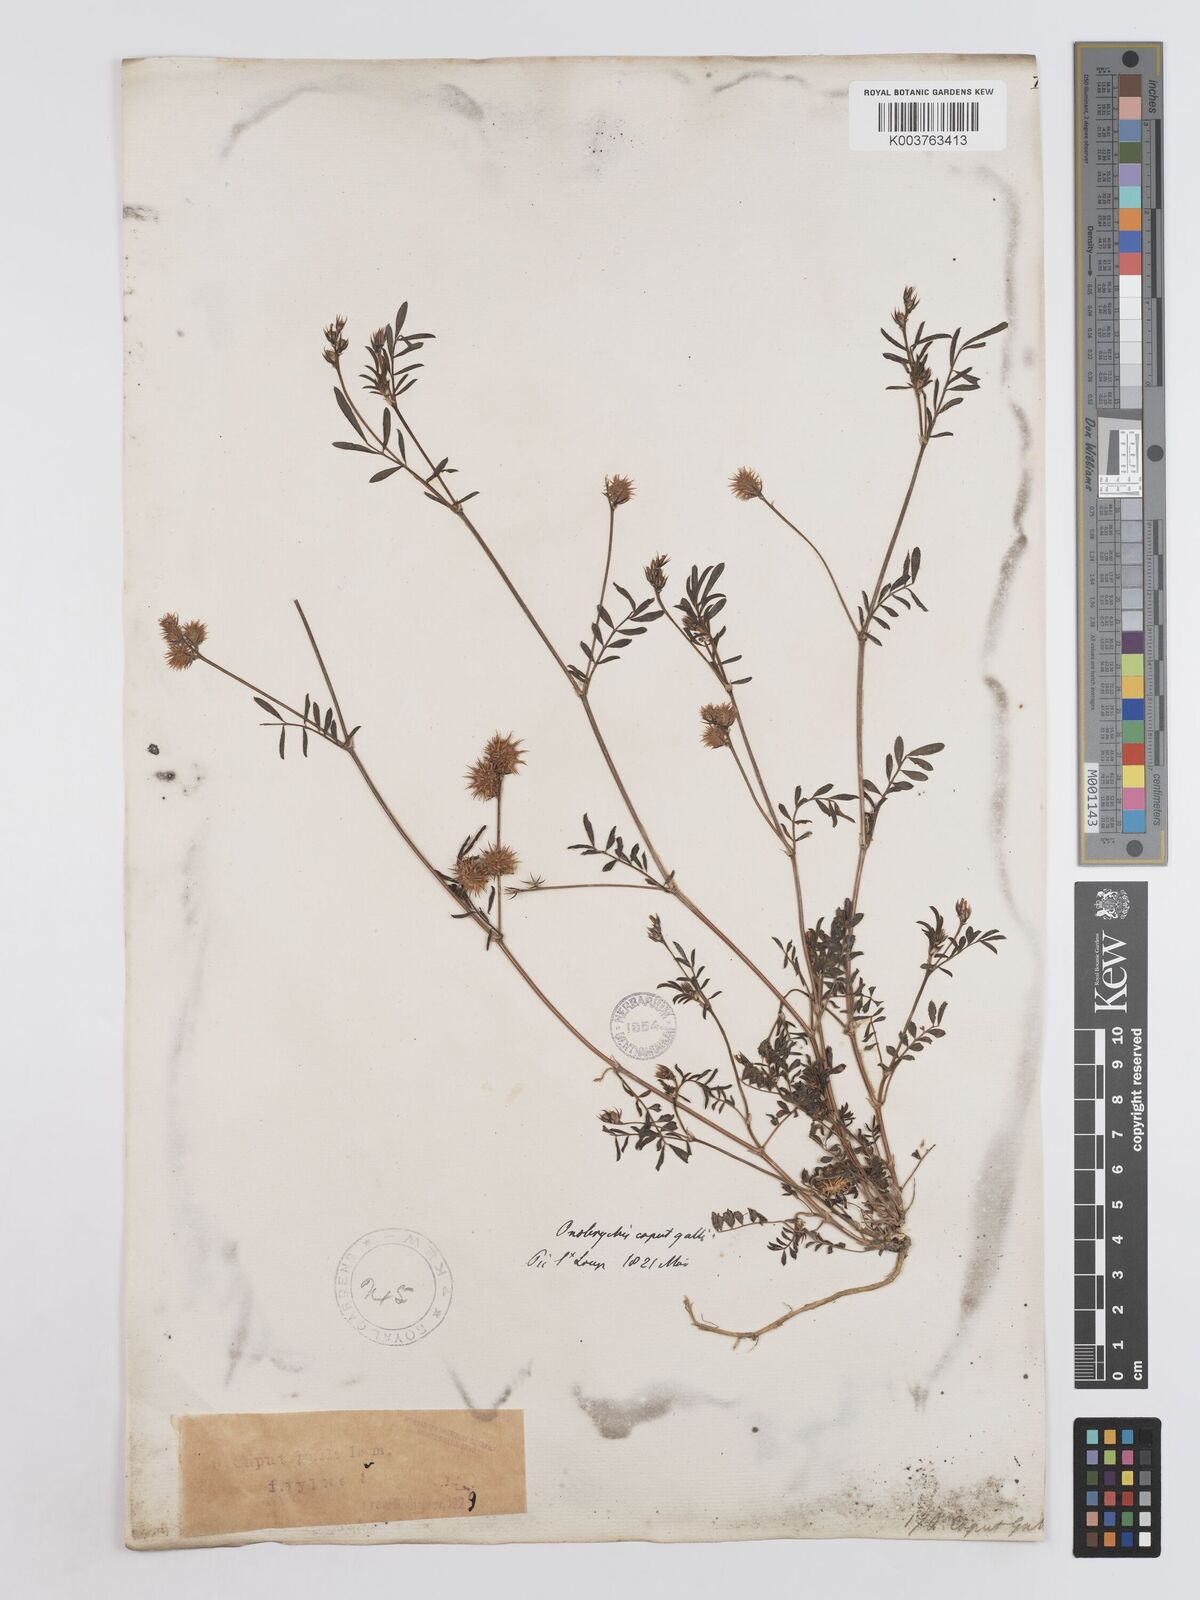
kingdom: Plantae
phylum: Tracheophyta
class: Magnoliopsida
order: Fabales
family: Fabaceae
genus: Onobrychis
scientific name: Onobrychis caput-galli
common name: Cockscomb sainfoin
